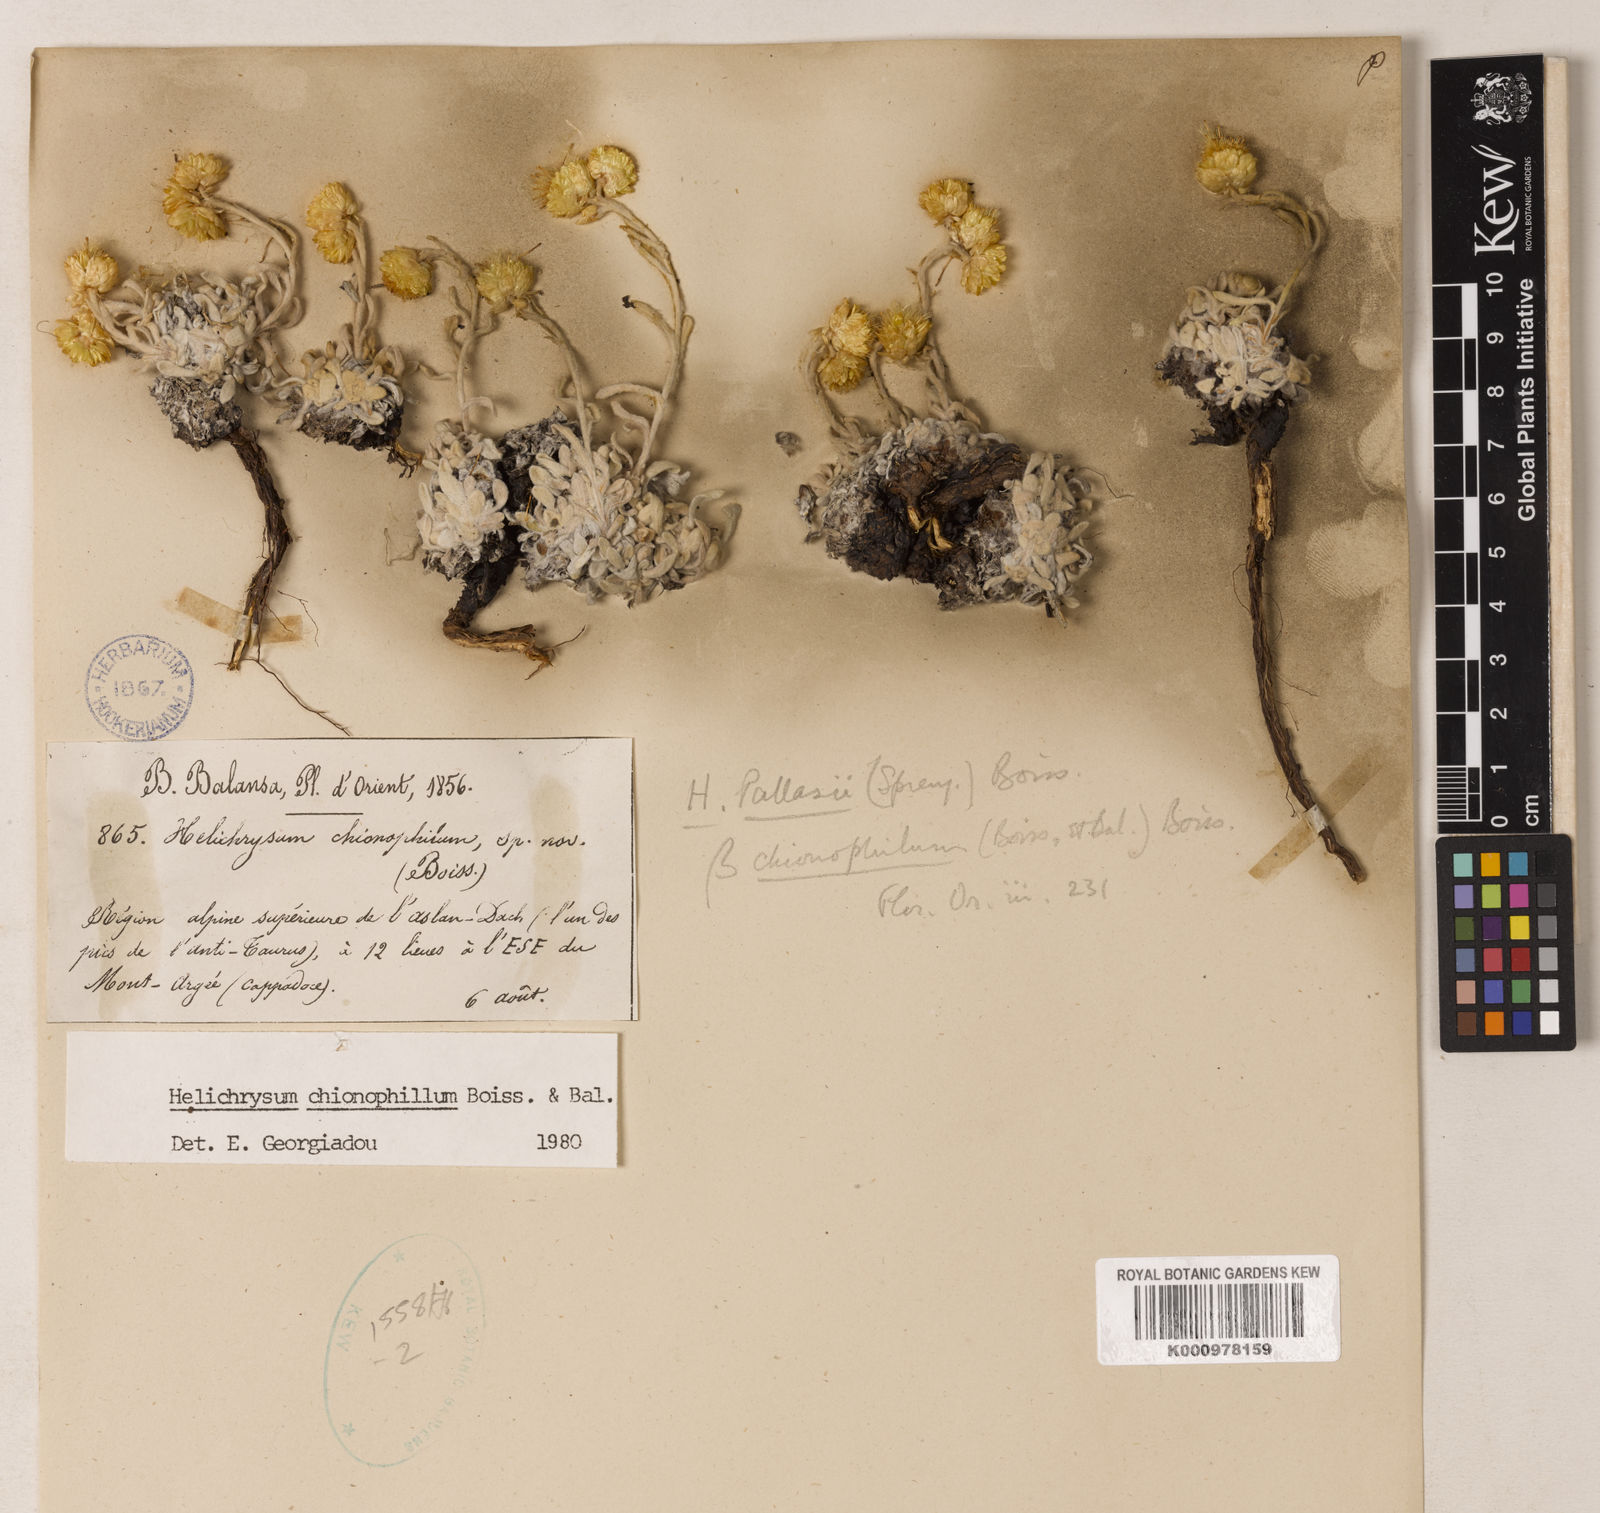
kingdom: Plantae
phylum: Tracheophyta
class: Magnoliopsida
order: Asterales
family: Asteraceae
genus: Helichrysum
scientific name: Helichrysum chionophilum
